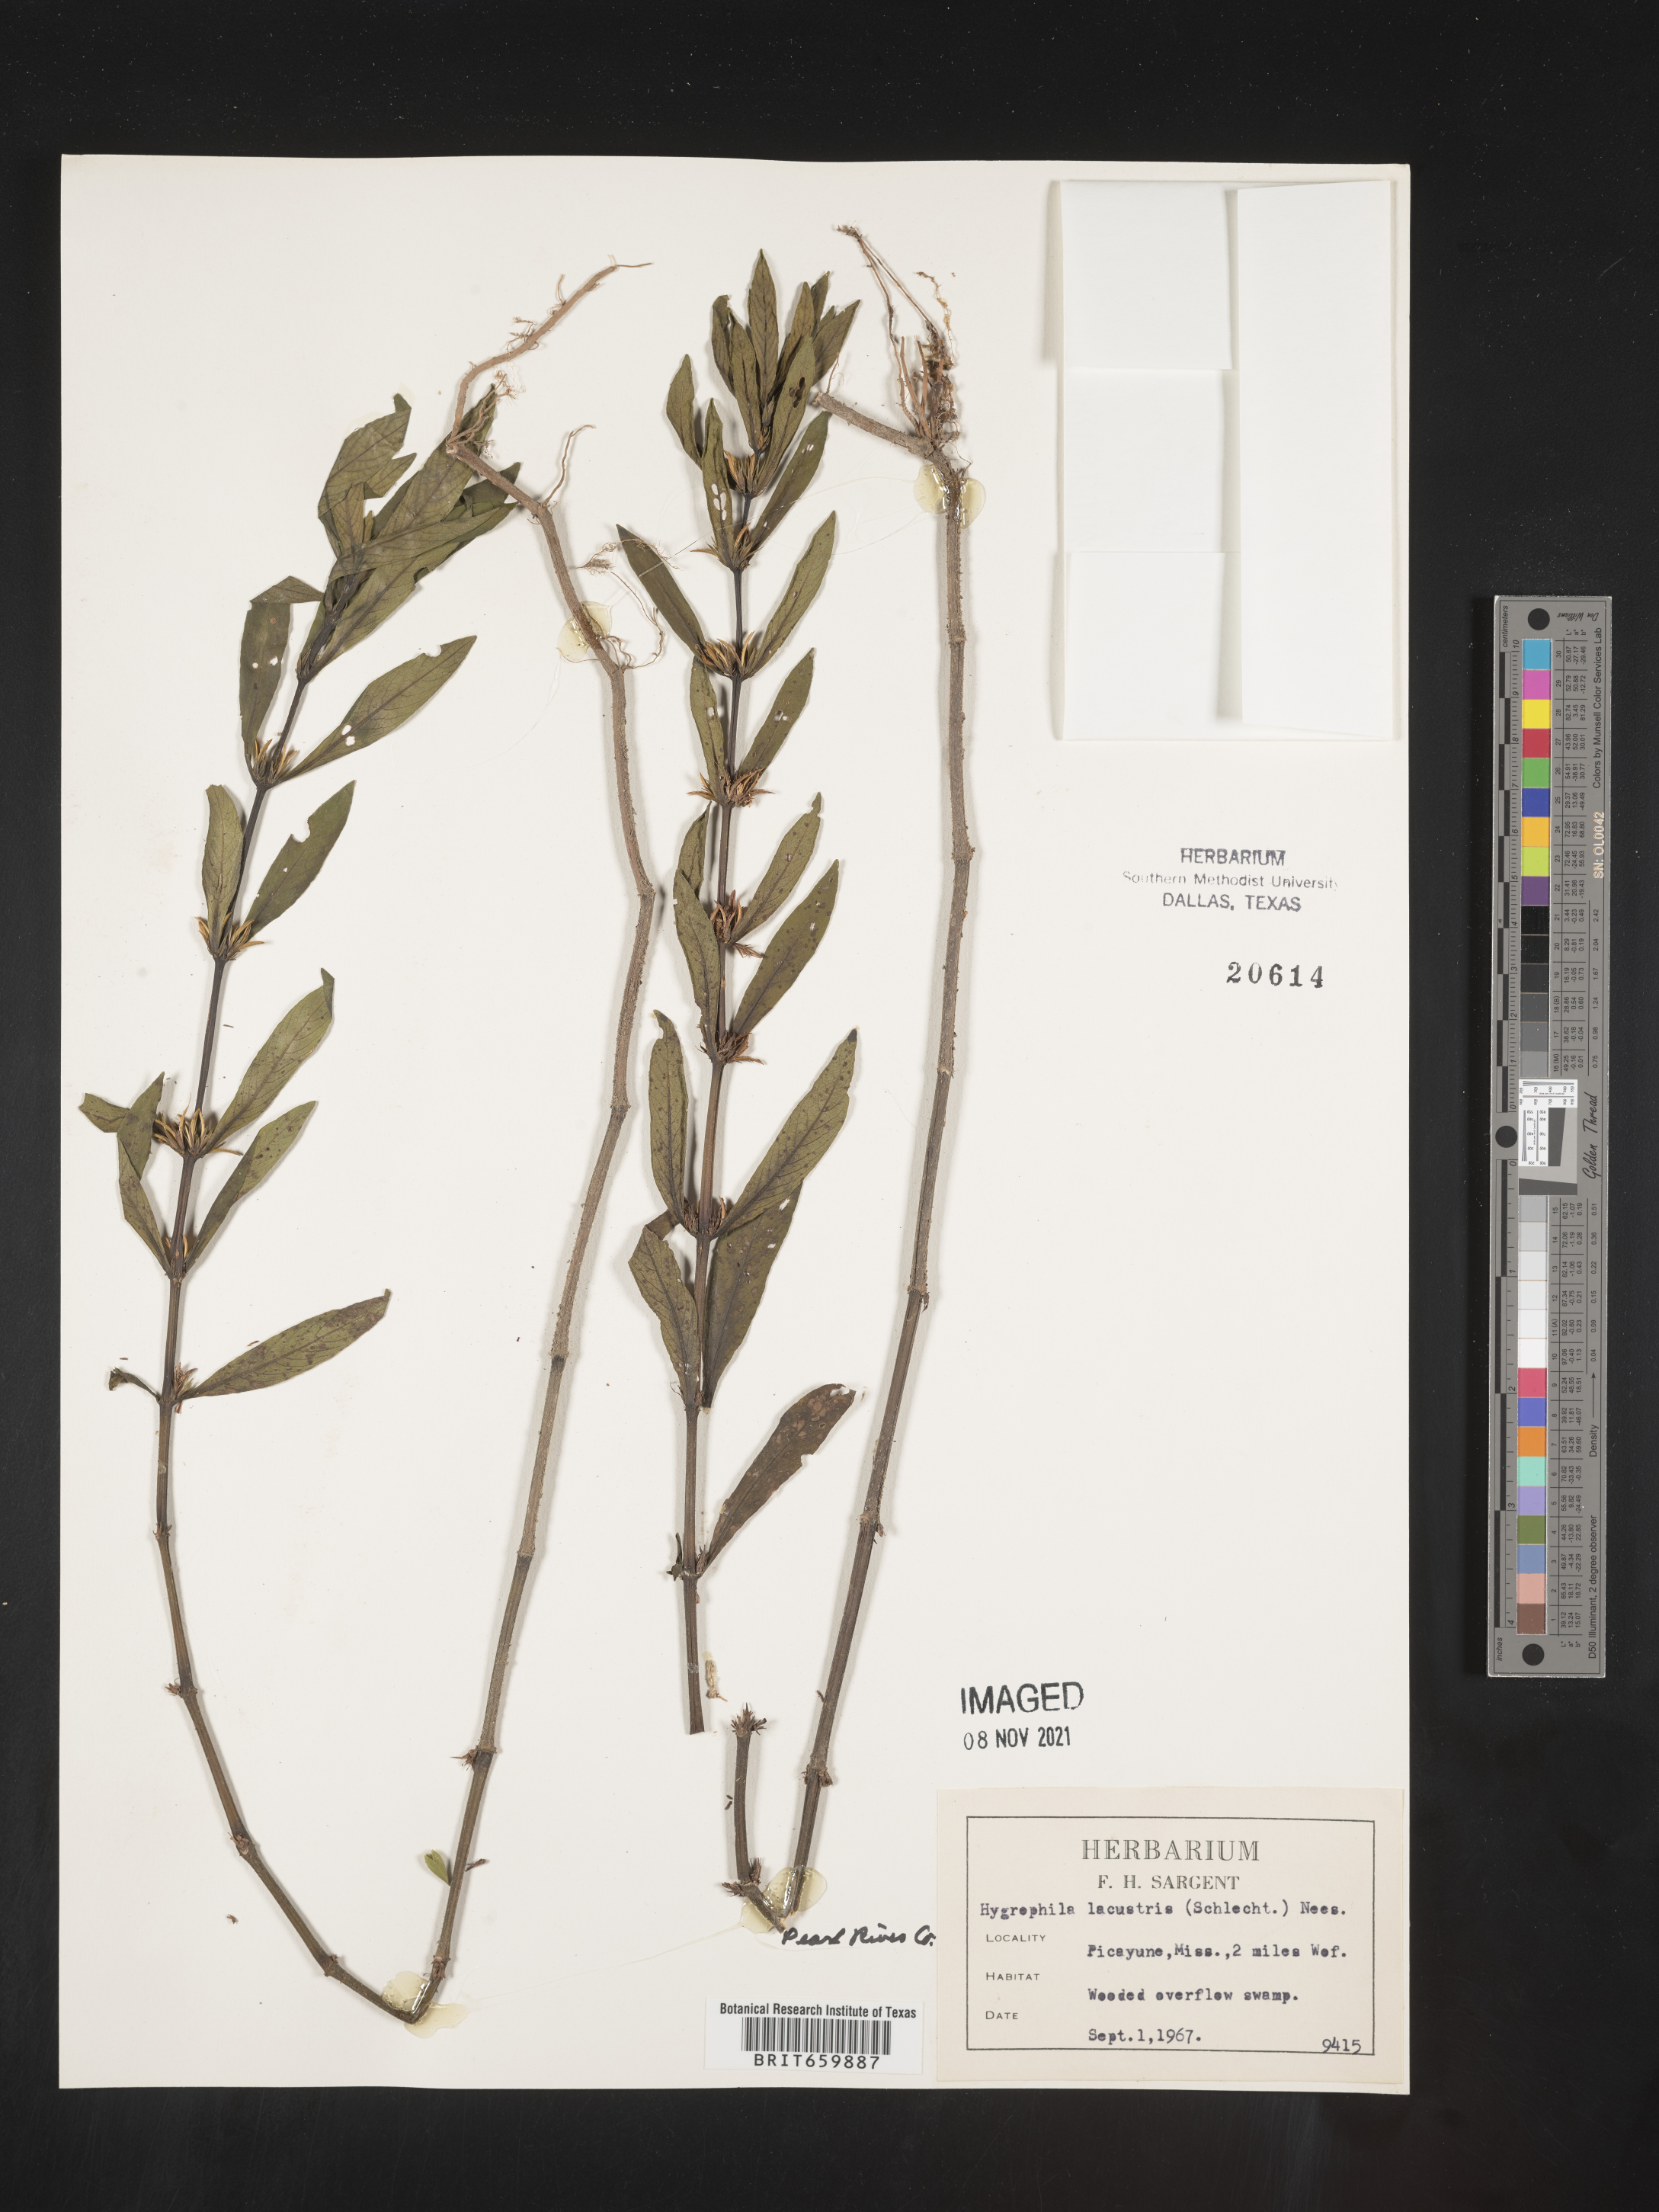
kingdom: Plantae
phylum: Tracheophyta
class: Magnoliopsida
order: Lamiales
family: Acanthaceae
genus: Hygrophila
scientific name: Hygrophila costata
